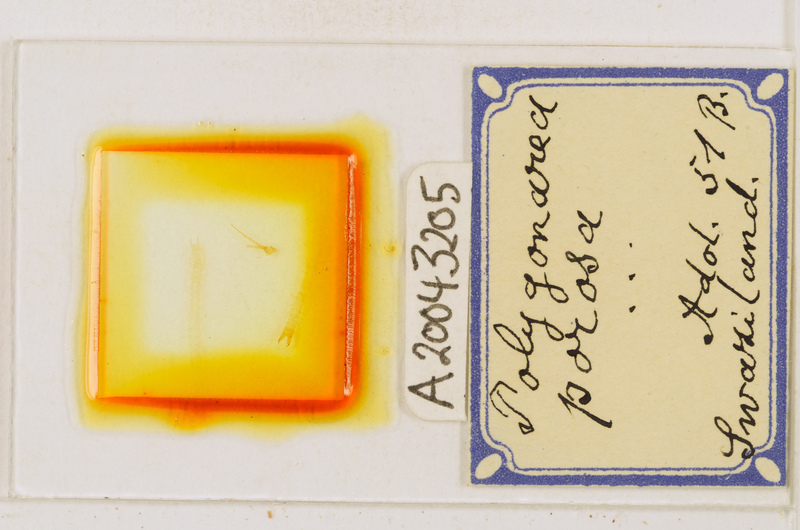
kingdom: Animalia
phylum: Arthropoda
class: Chilopoda
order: Geophilomorpha
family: Geophilidae
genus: Polygonarea
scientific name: Polygonarea africana
